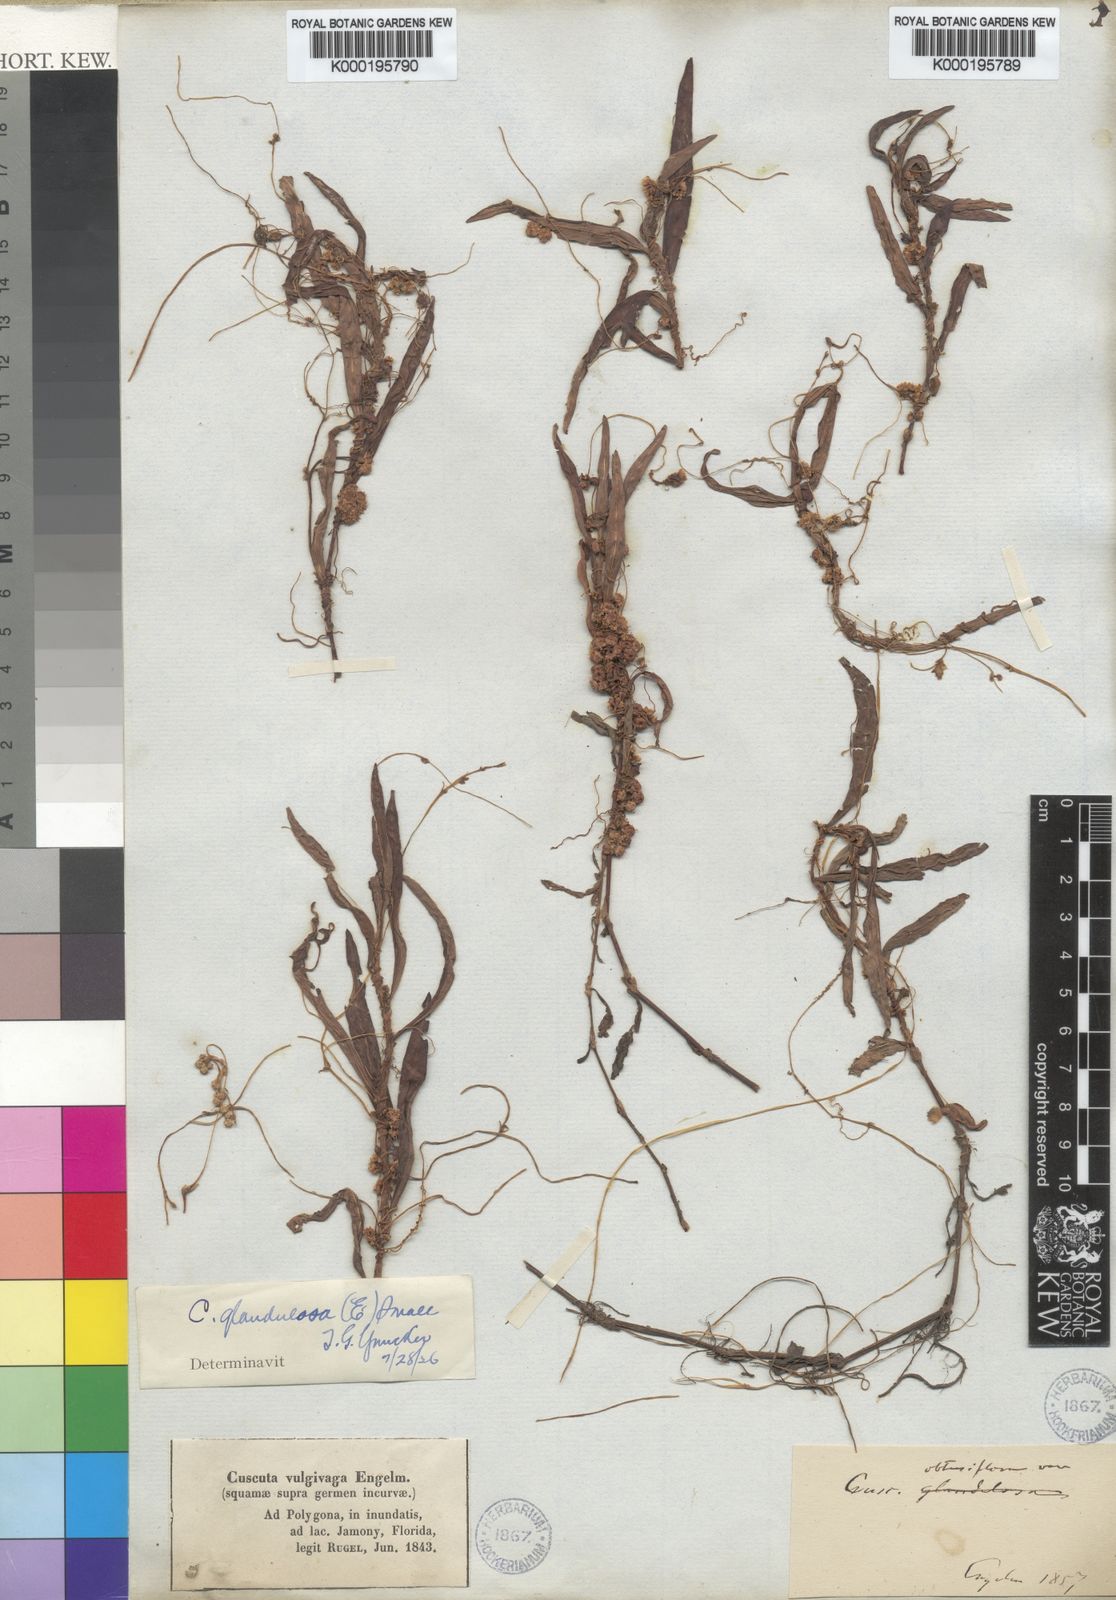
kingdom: Plantae
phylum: Tracheophyta
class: Magnoliopsida
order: Solanales
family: Convolvulaceae
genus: Cuscuta
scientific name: Cuscuta obtusiflora
